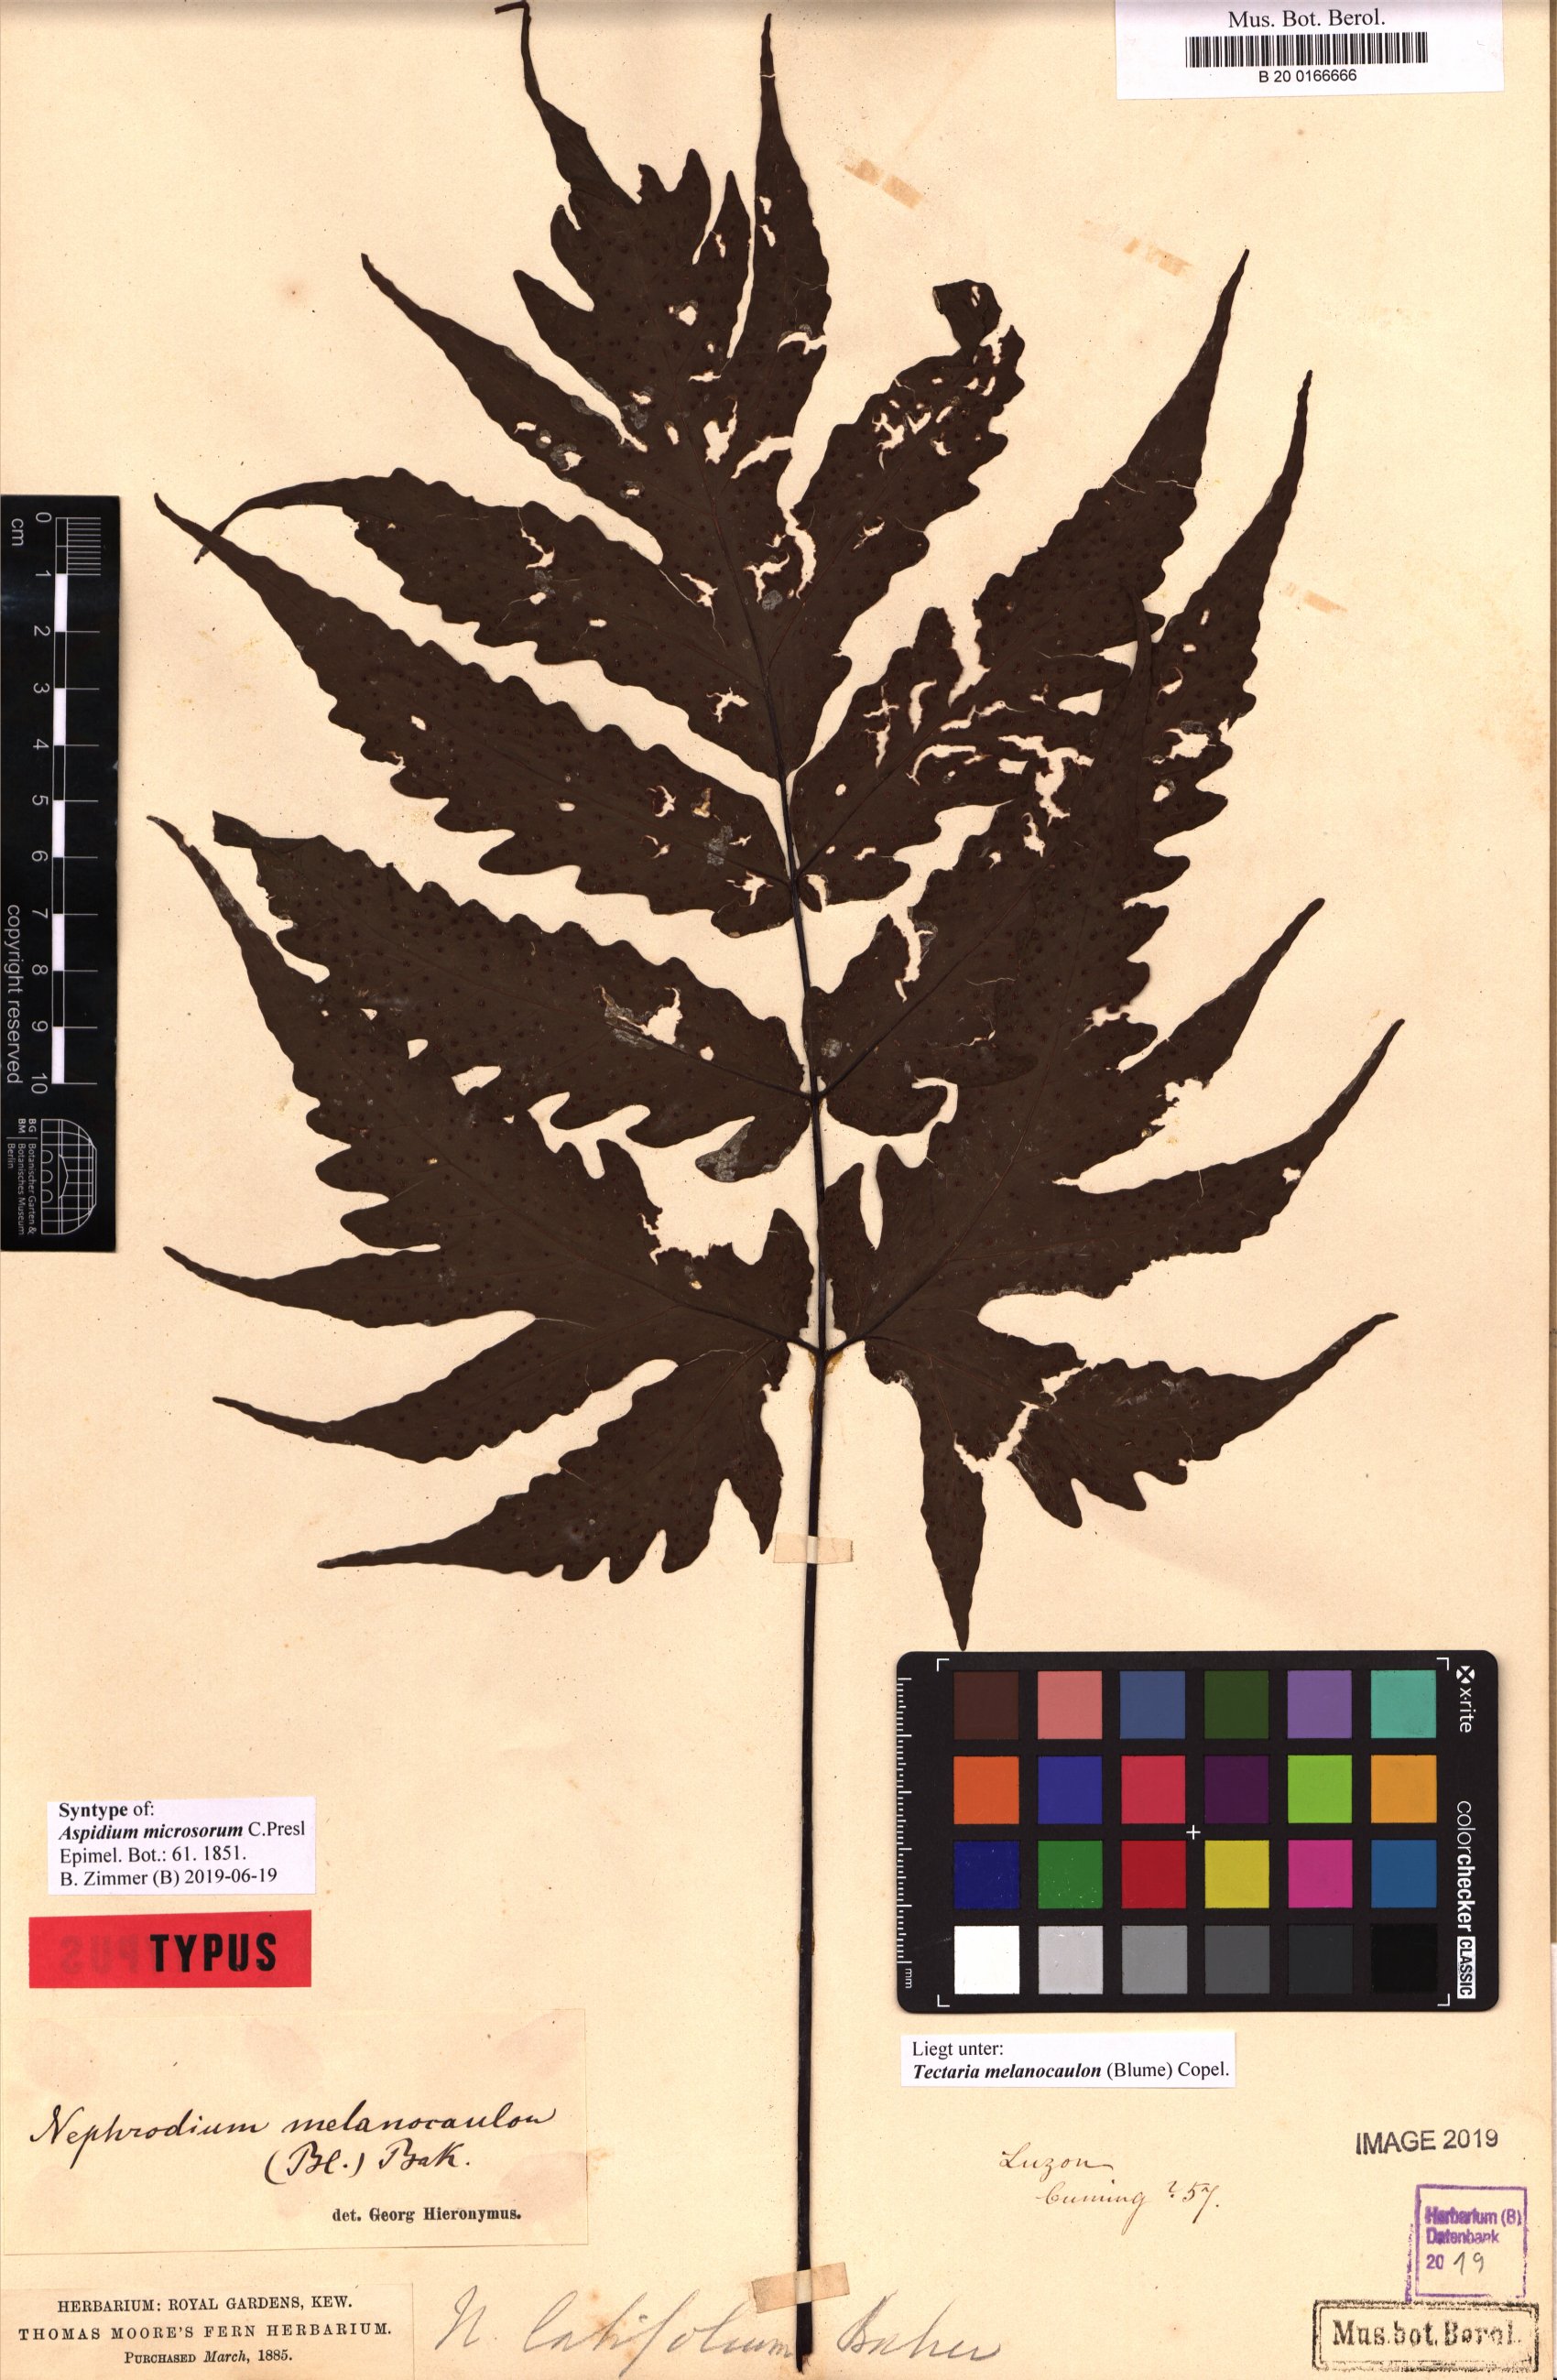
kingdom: Plantae
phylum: Tracheophyta
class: Polypodiopsida
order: Polypodiales
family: Tectariaceae
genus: Tectaria
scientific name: Tectaria melanocaulos
